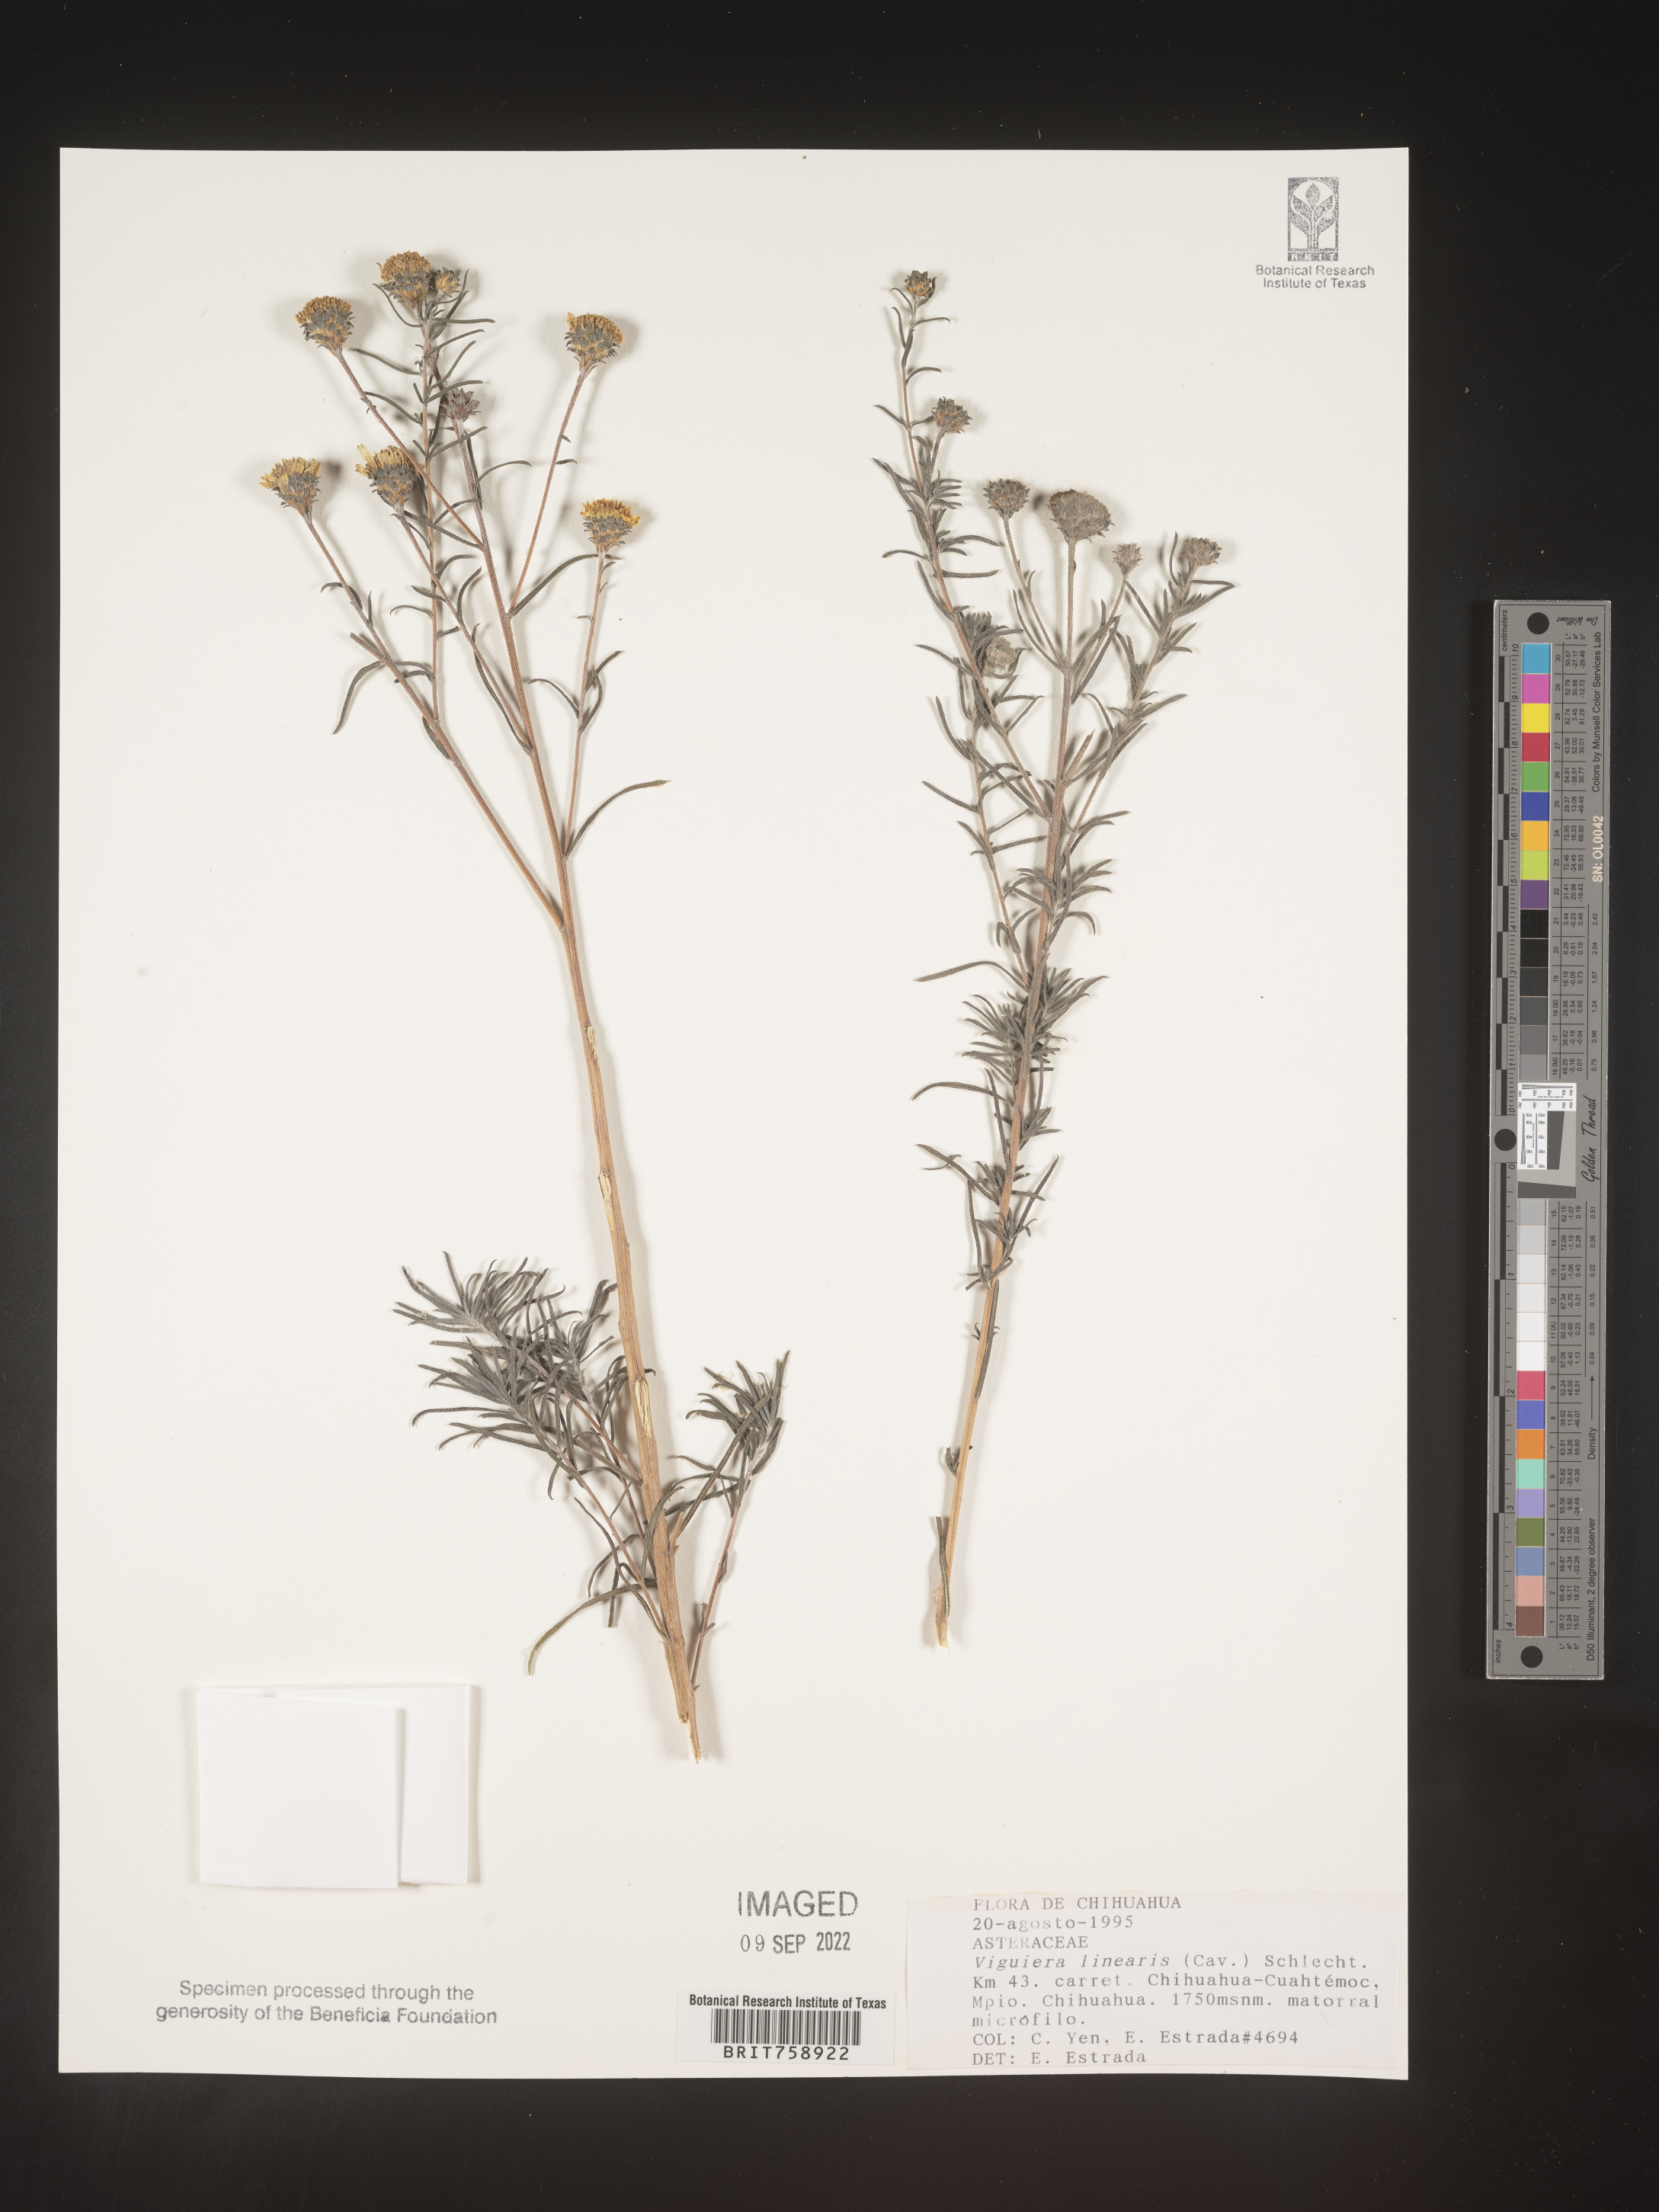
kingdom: Plantae
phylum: Tracheophyta
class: Magnoliopsida
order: Asterales
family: Asteraceae
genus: Viguiera
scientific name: Viguiera
